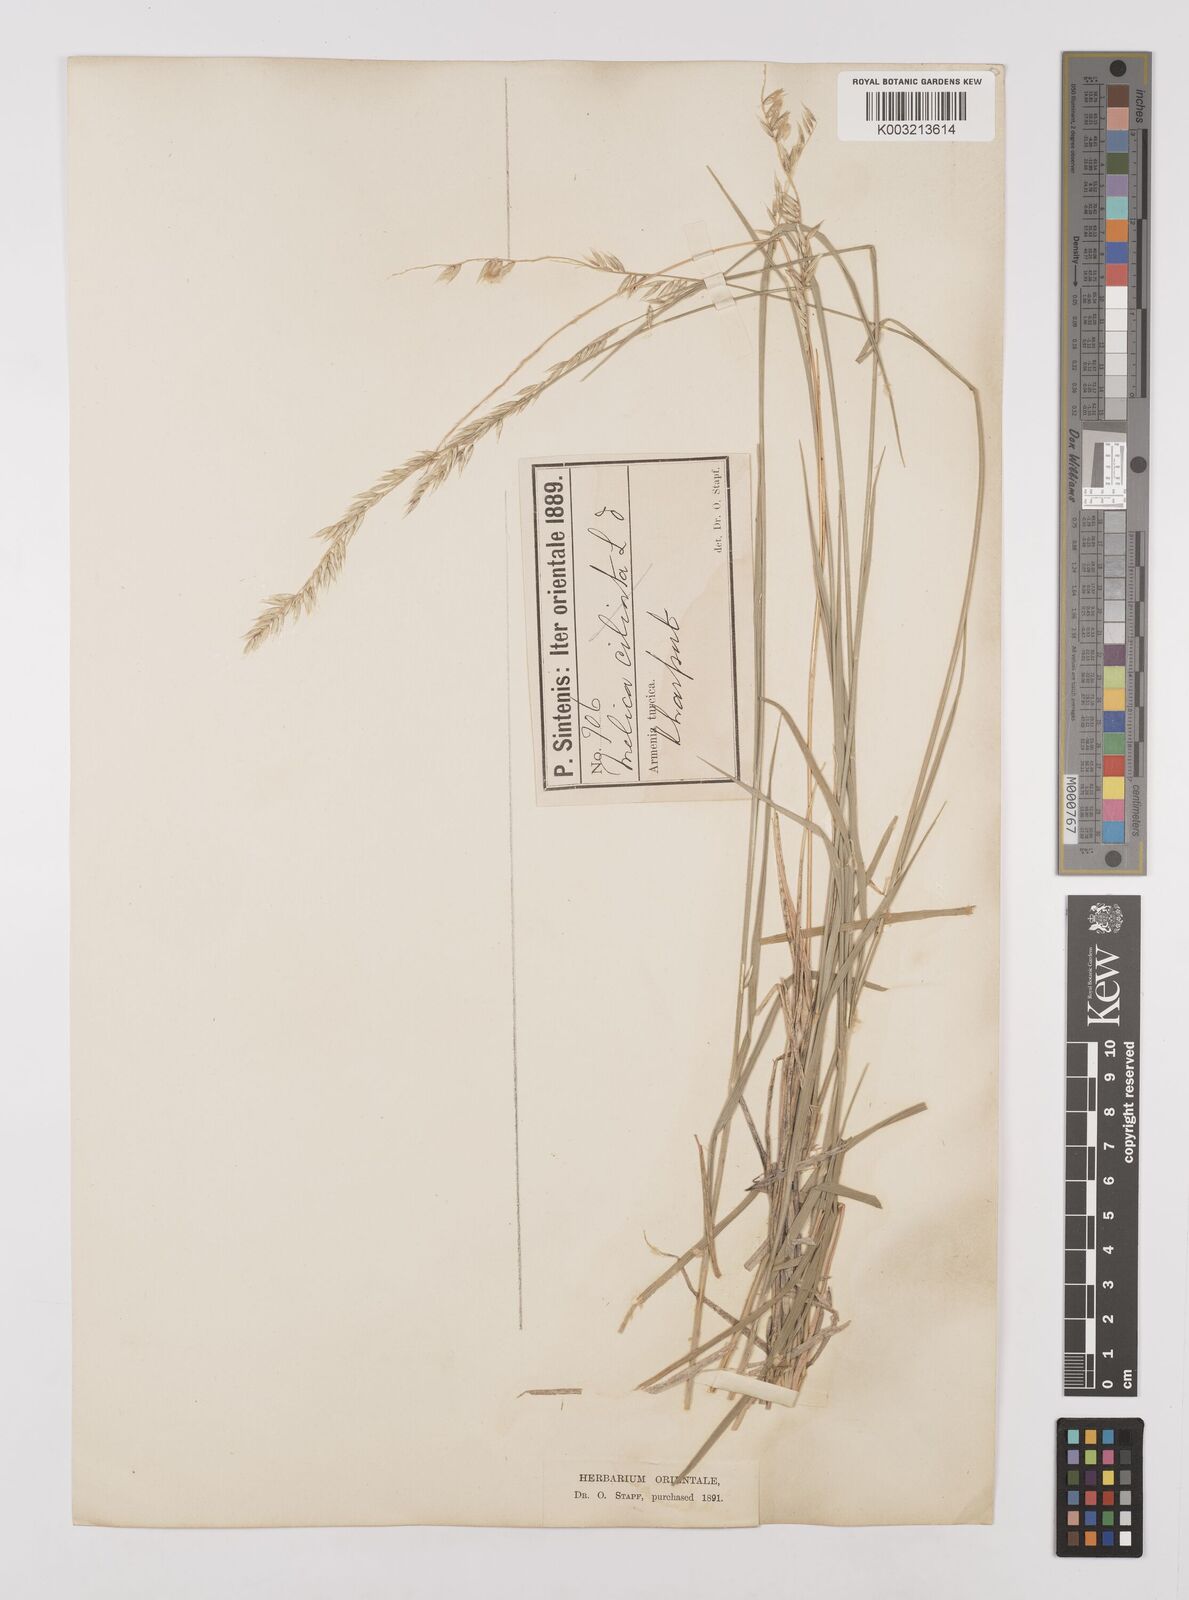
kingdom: Plantae
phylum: Tracheophyta
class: Liliopsida
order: Poales
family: Poaceae
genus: Melica
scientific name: Melica ciliata
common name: Hairy melicgrass
